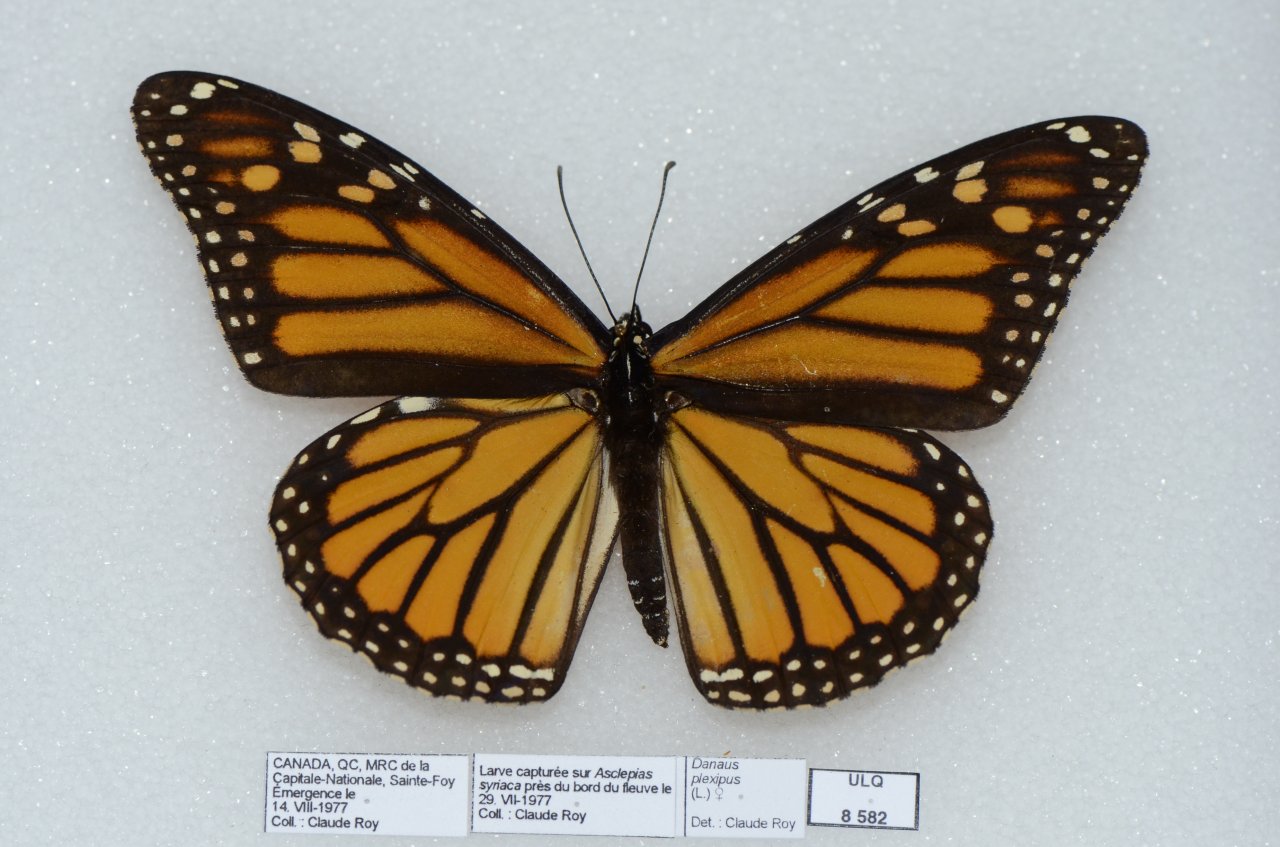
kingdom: Animalia
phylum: Arthropoda
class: Insecta
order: Lepidoptera
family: Nymphalidae
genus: Danaus
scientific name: Danaus plexippus
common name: Monarch
